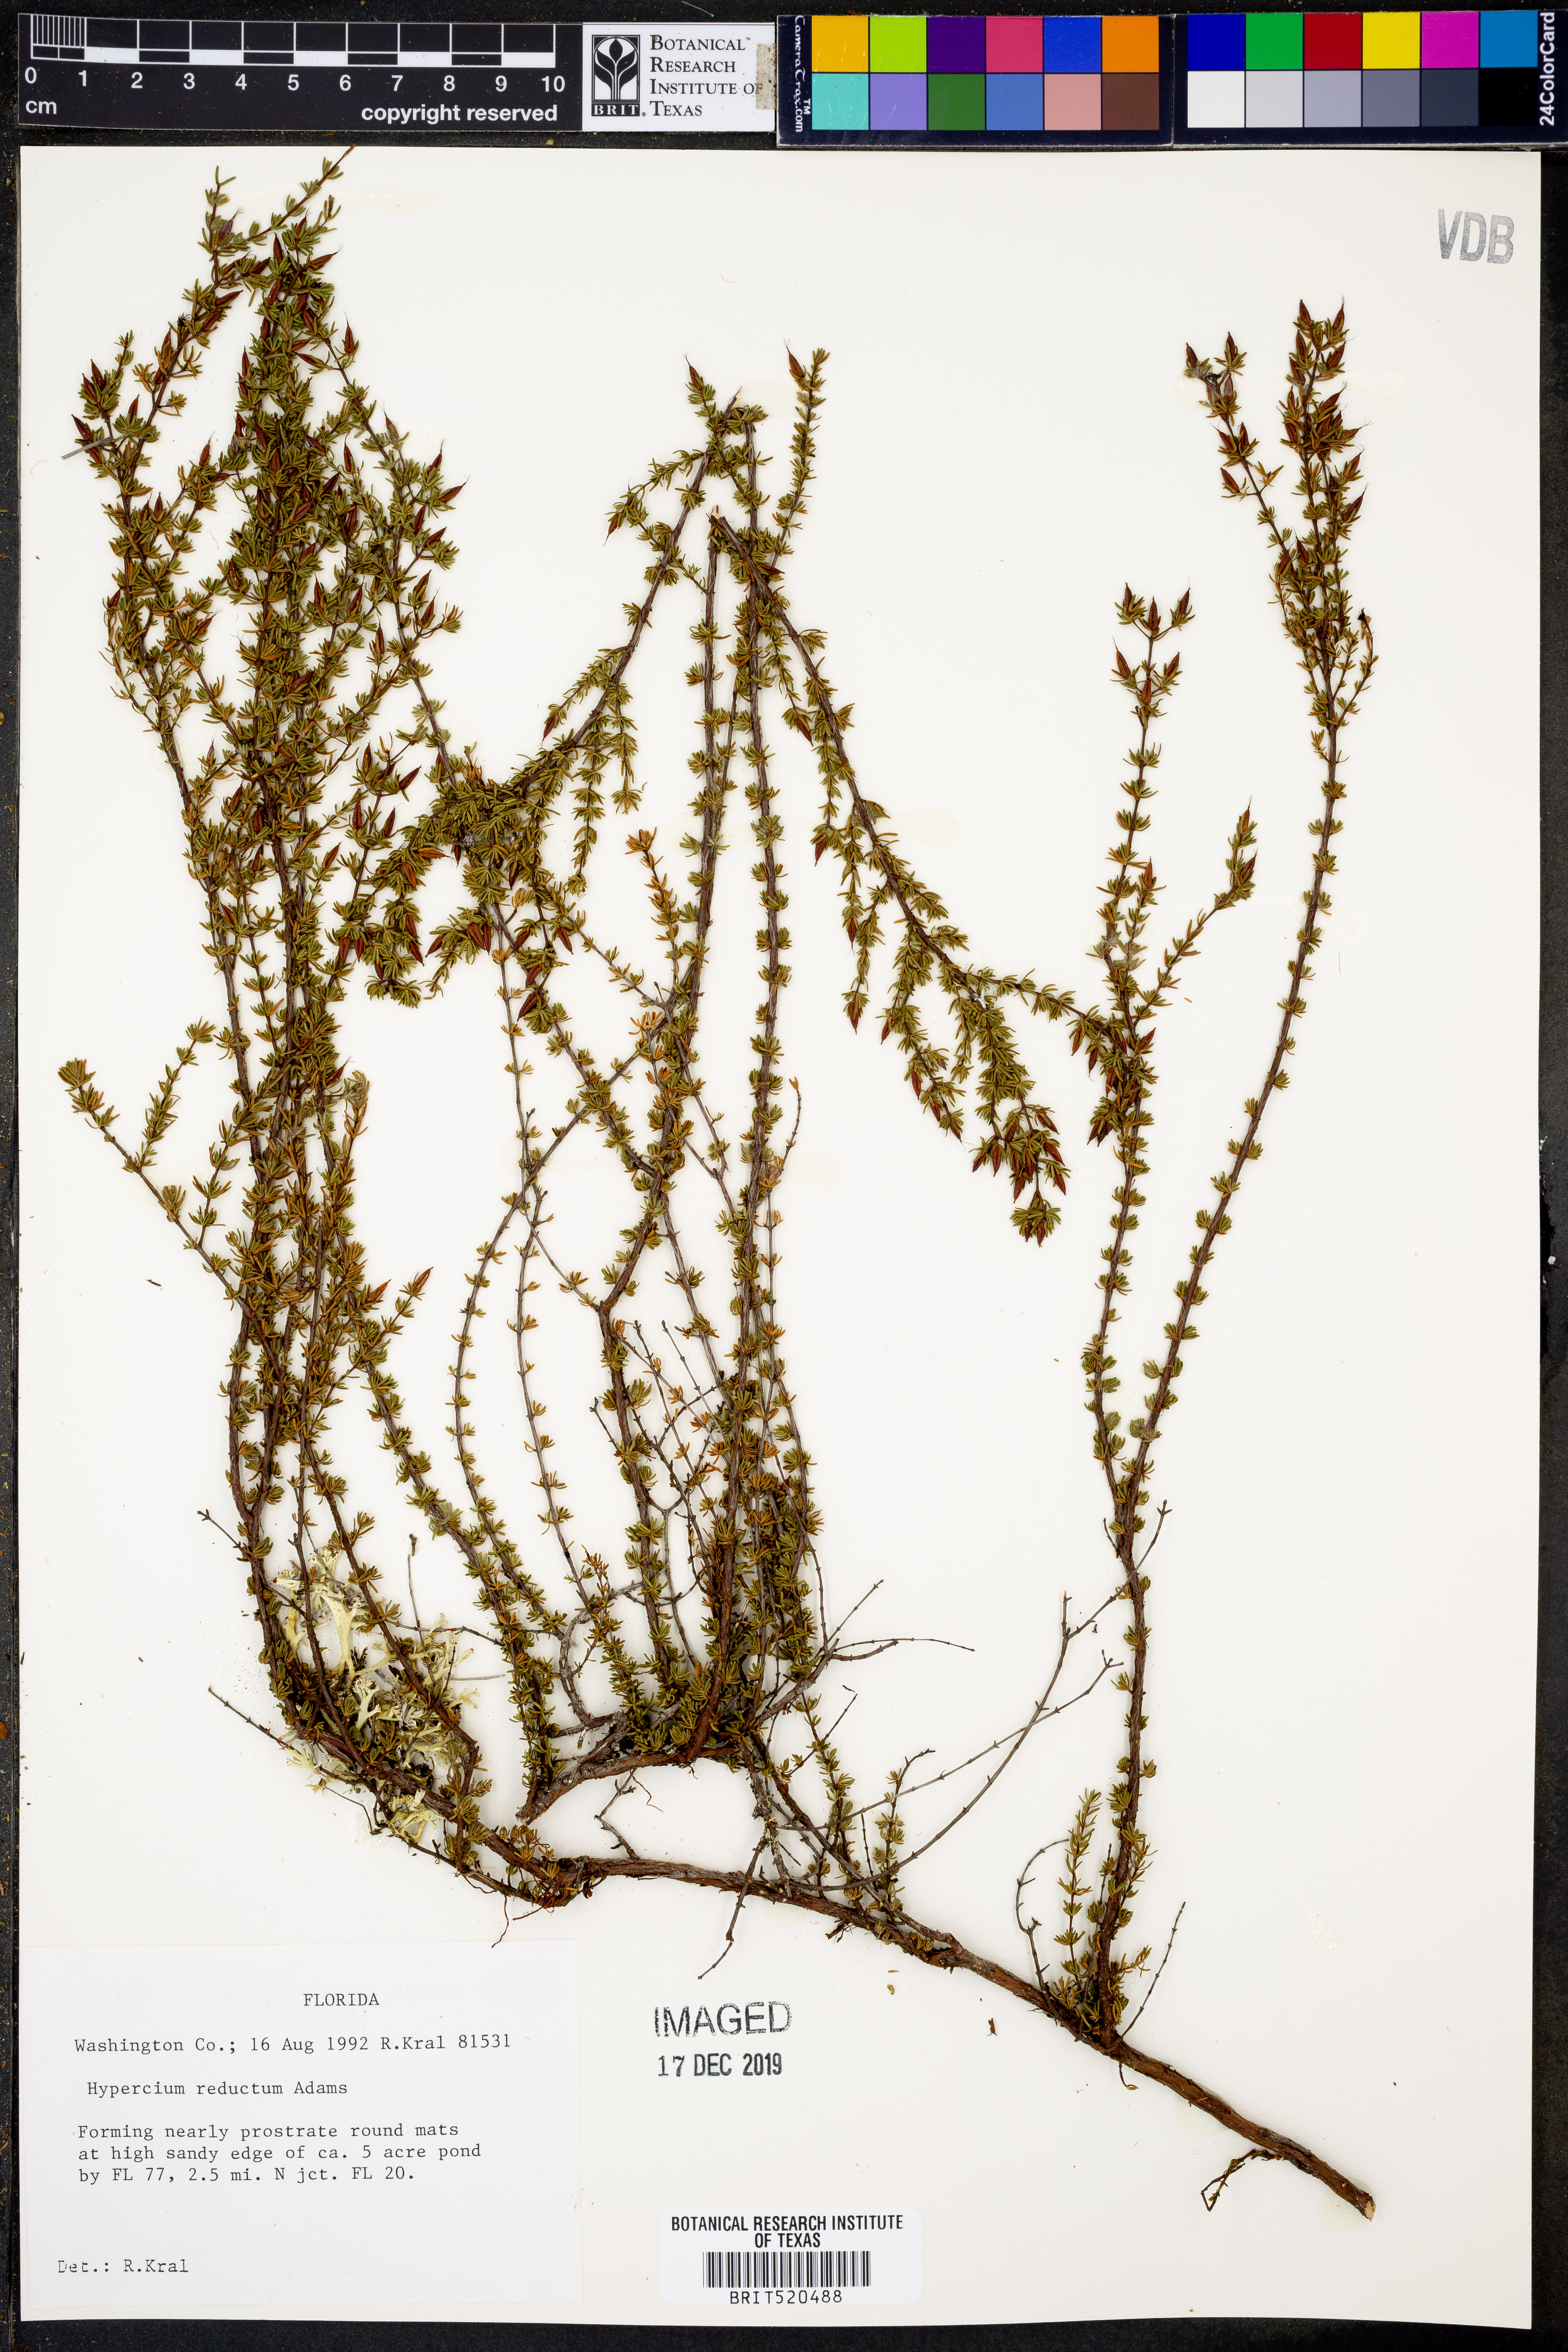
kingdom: Plantae
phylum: Tracheophyta
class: Magnoliopsida
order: Malpighiales
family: Hypericaceae
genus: Hypericum
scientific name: Hypericum tenuifolium
